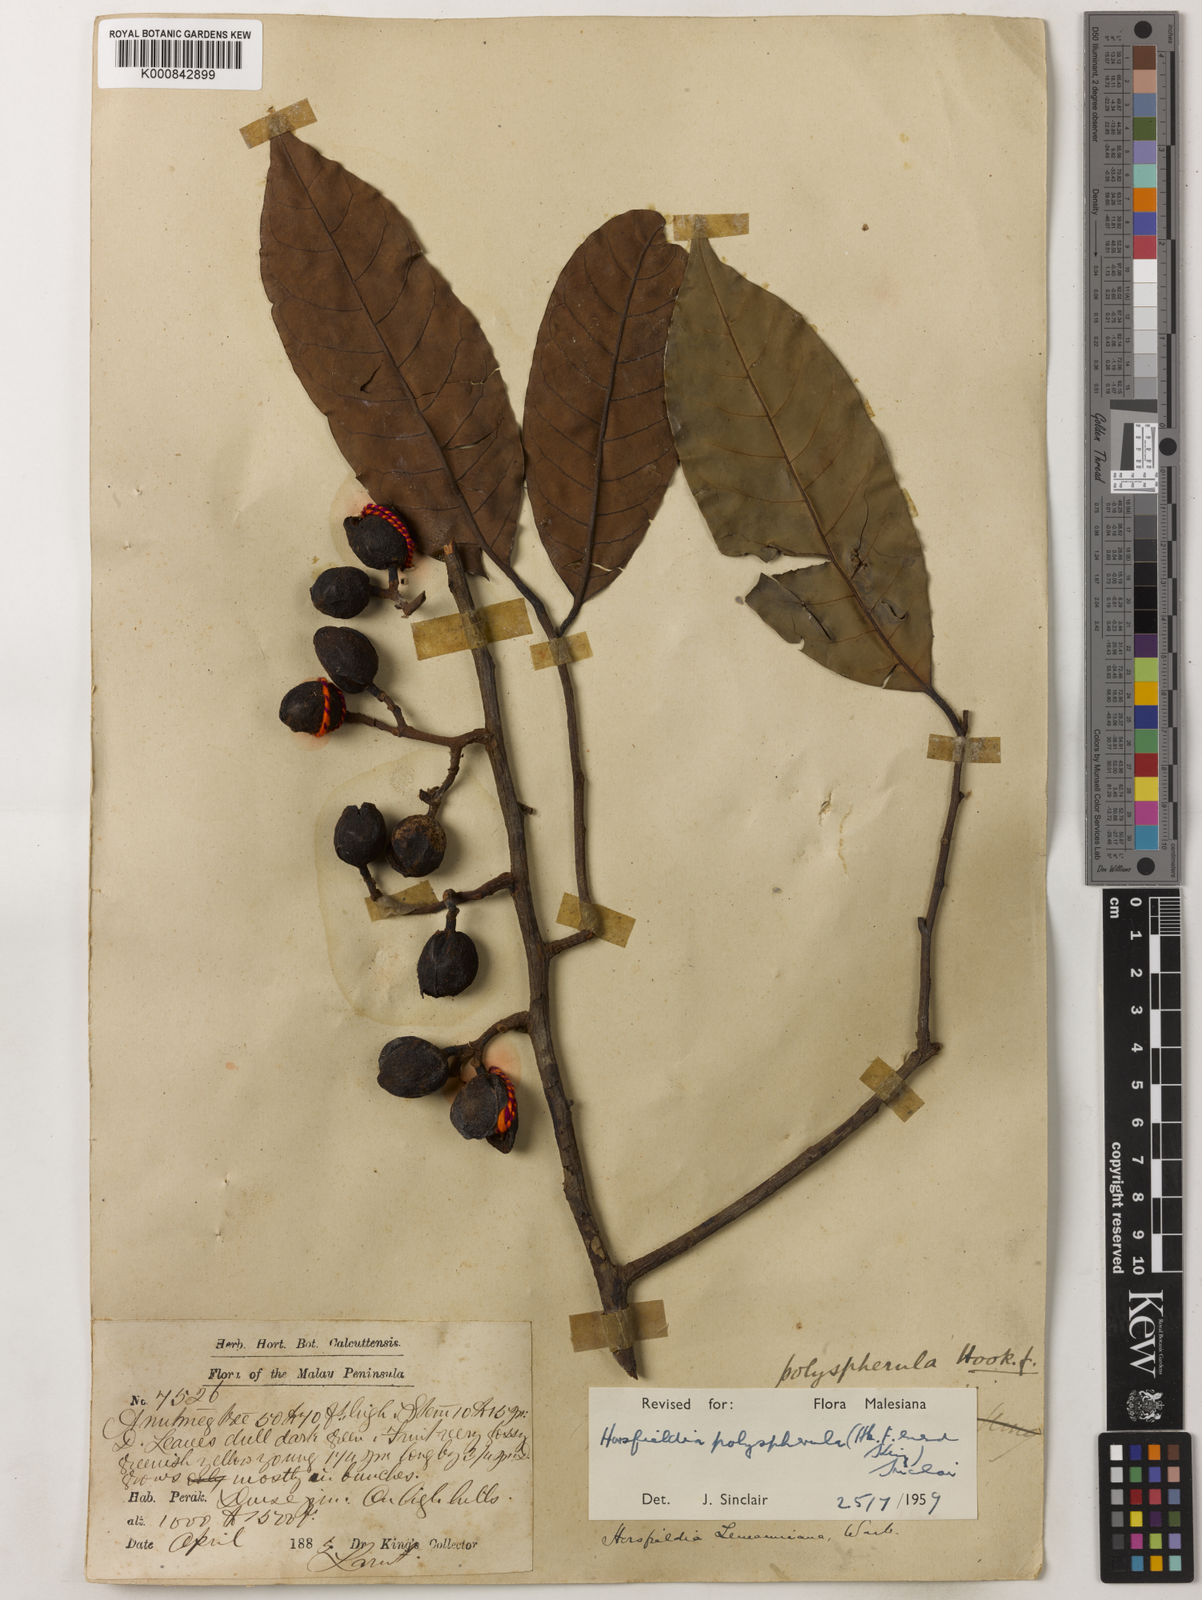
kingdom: Plantae
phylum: Tracheophyta
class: Magnoliopsida
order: Magnoliales
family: Myristicaceae
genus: Horsfieldia
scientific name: Horsfieldia
